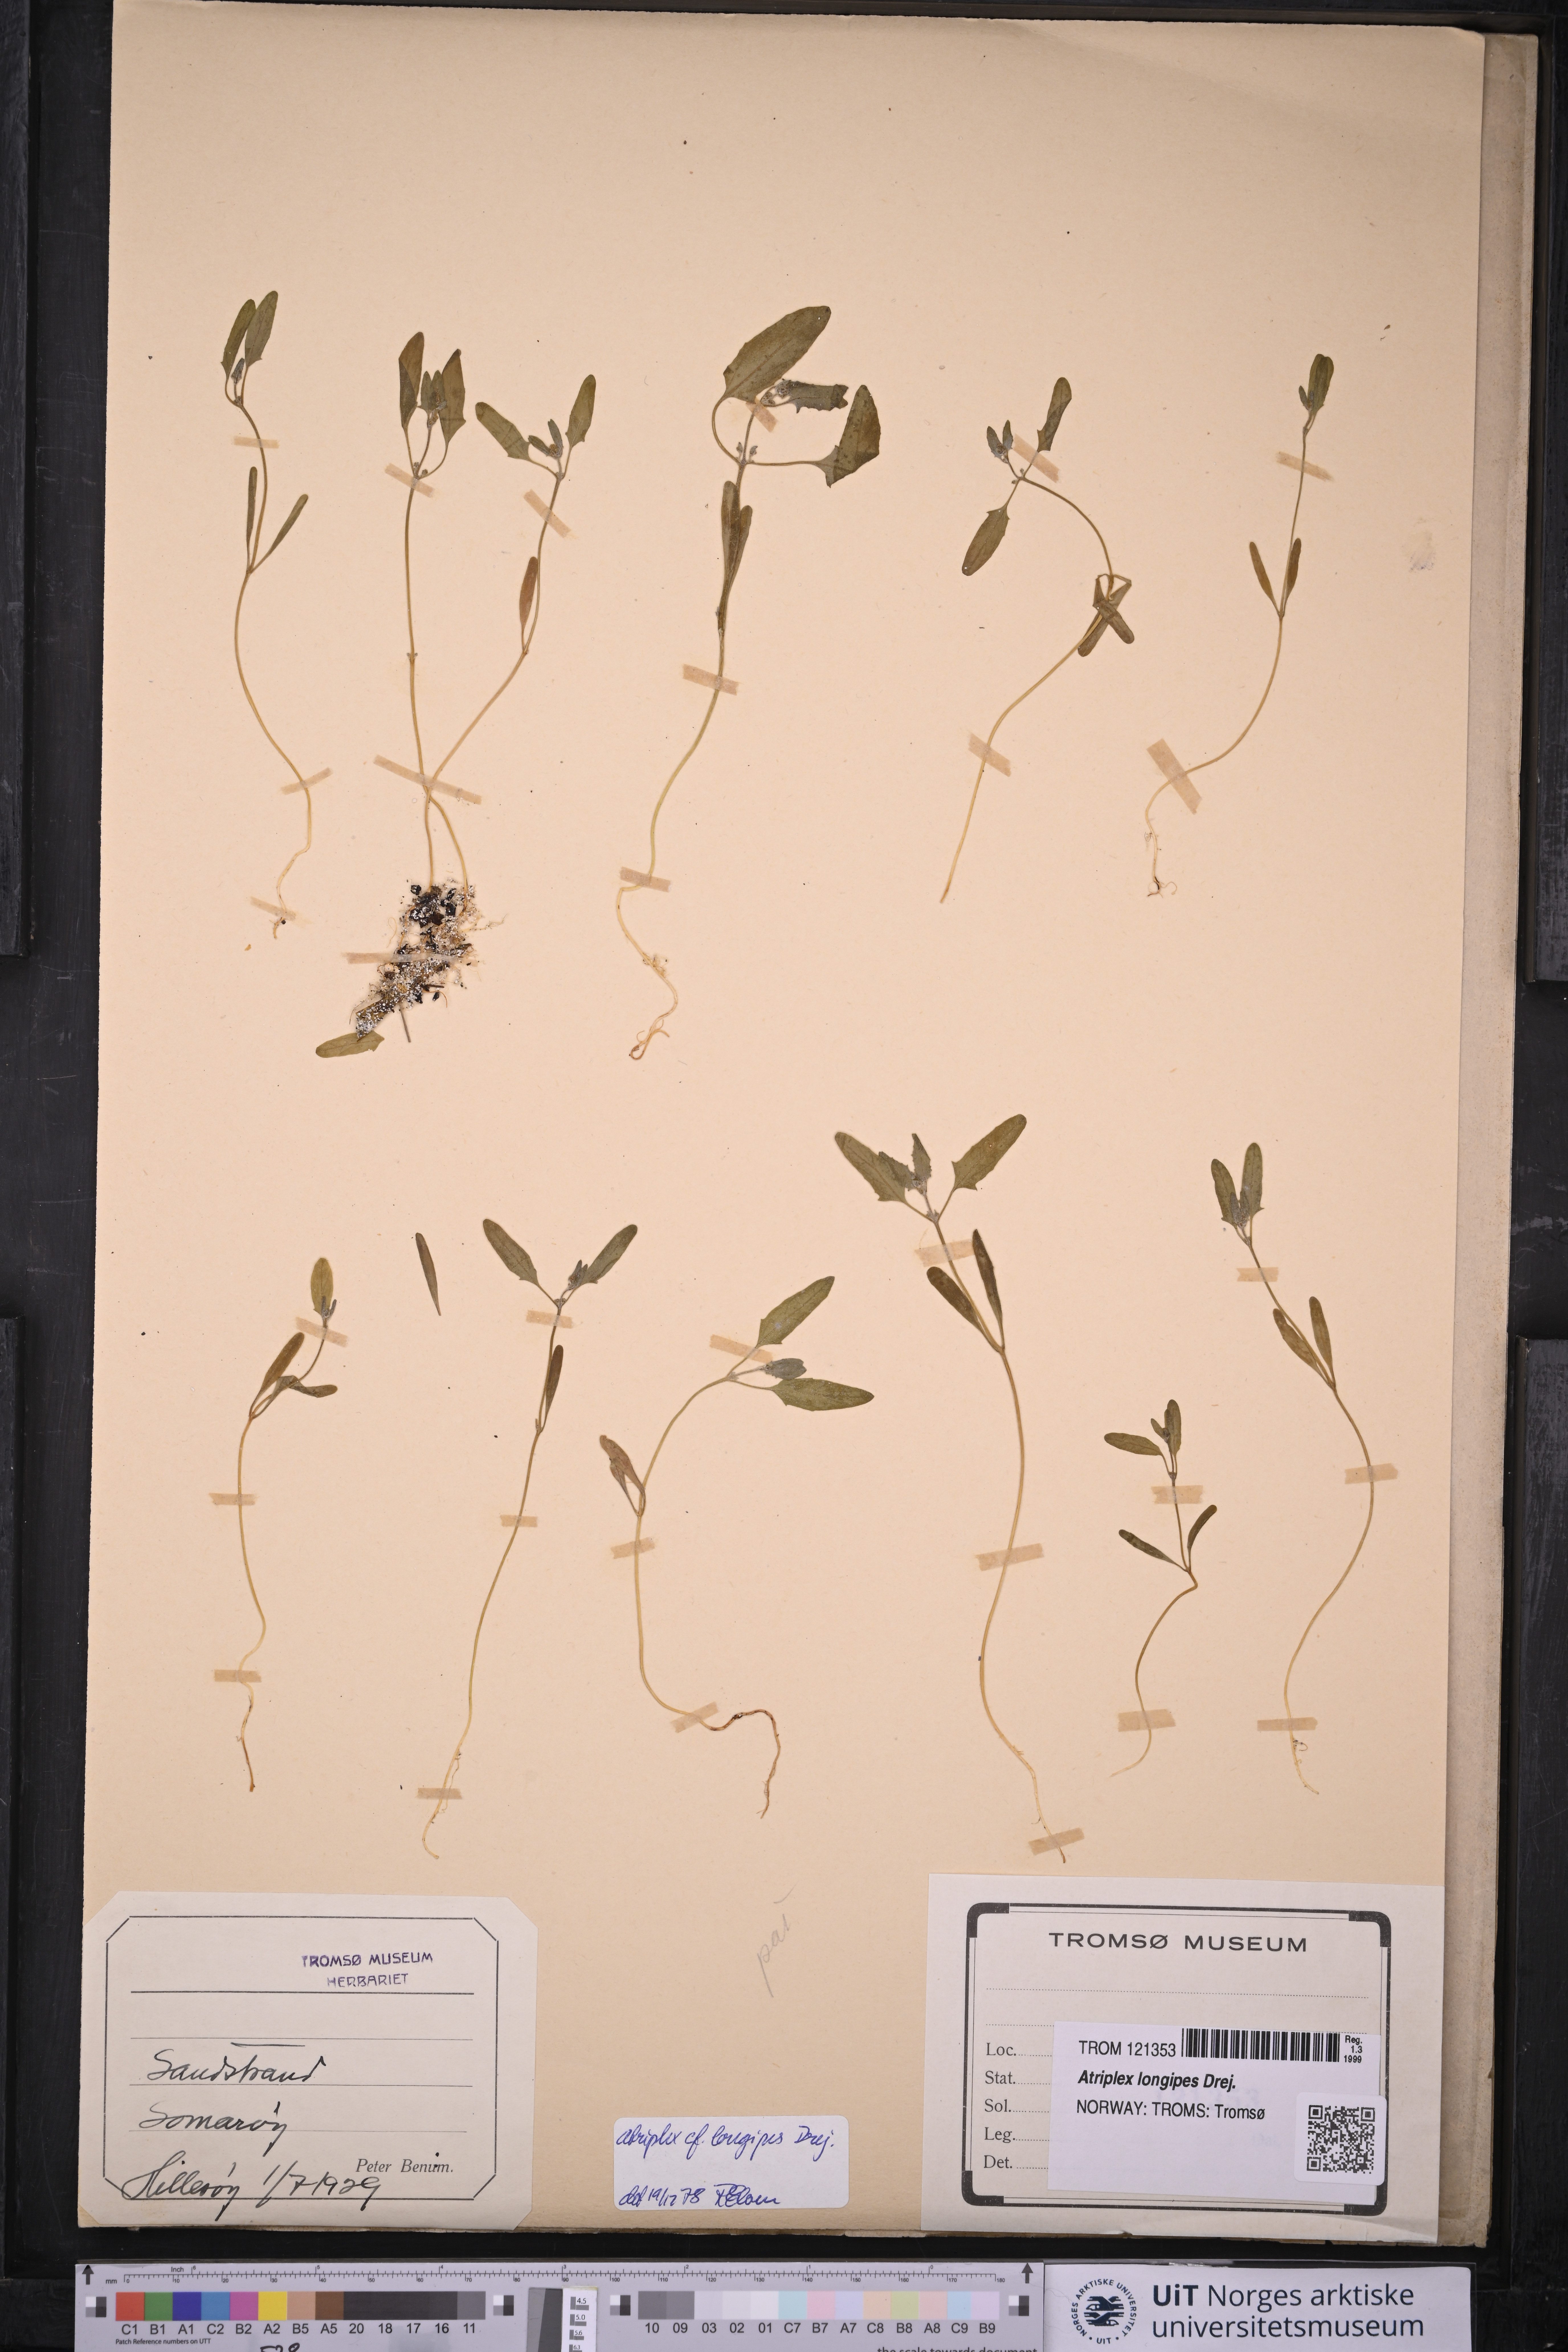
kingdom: Plantae
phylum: Tracheophyta
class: Magnoliopsida
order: Caryophyllales
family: Amaranthaceae
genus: Atriplex
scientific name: Atriplex longipes
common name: Long-stalked orache
